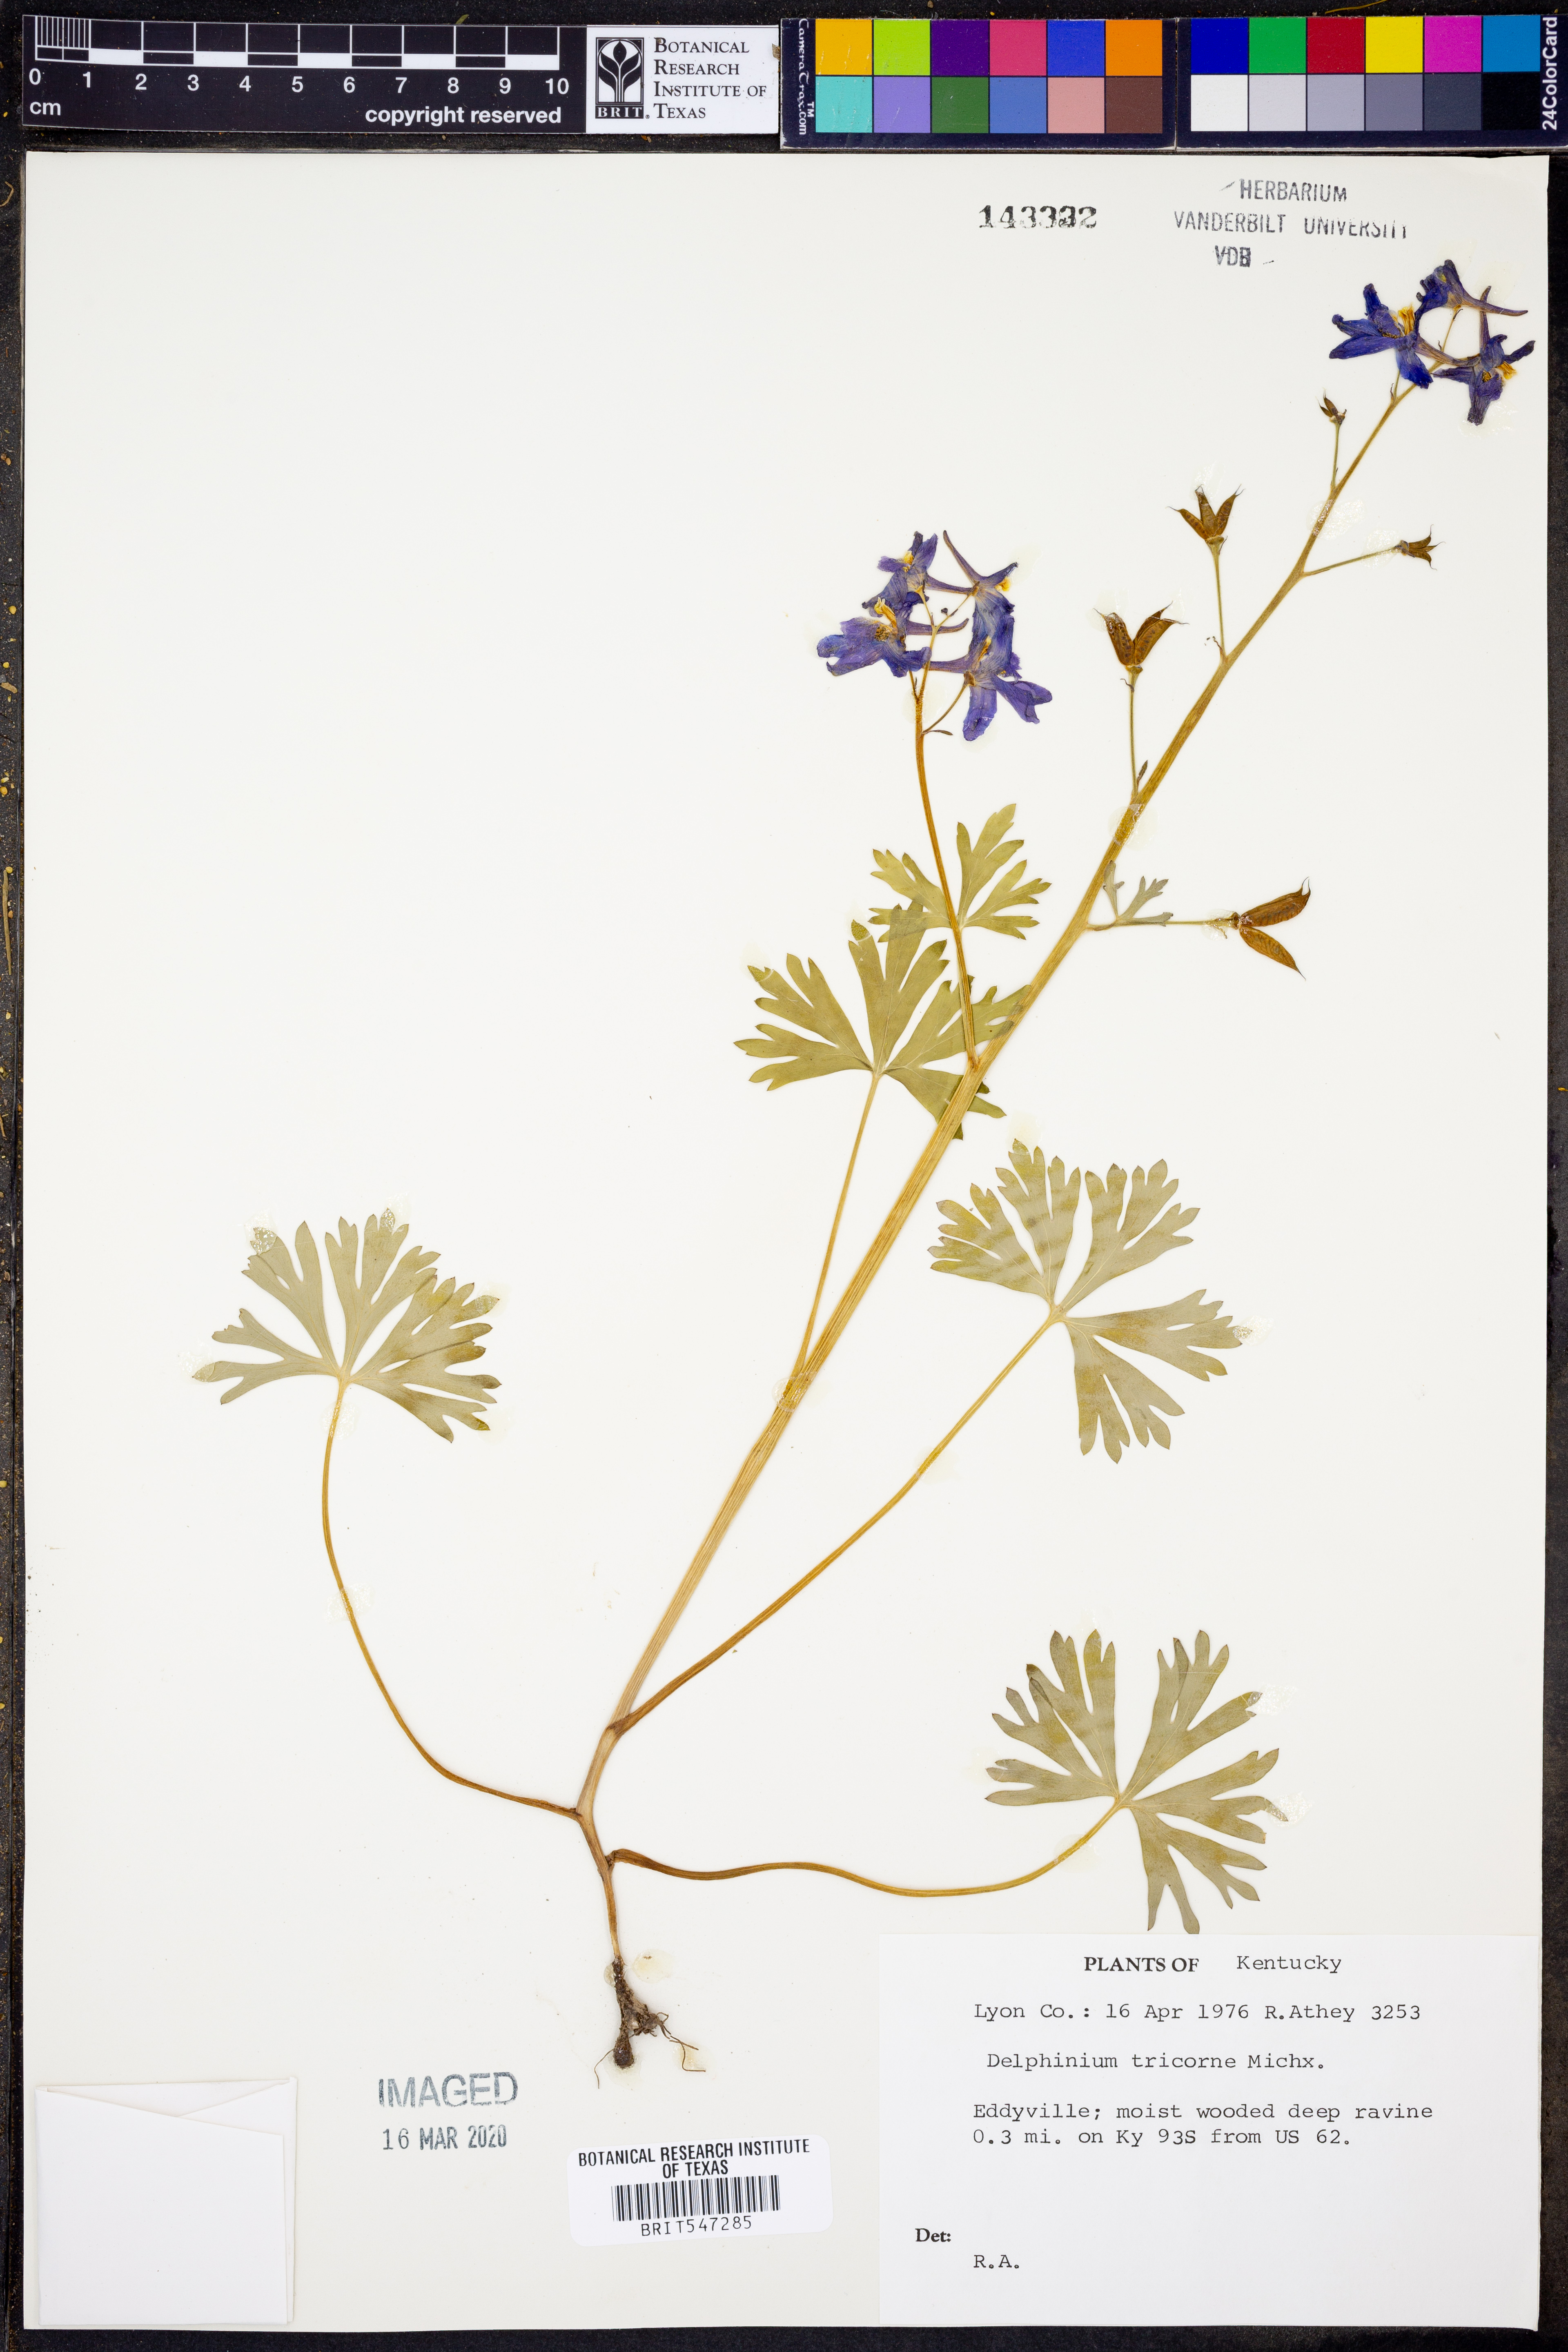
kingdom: Plantae
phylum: Tracheophyta
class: Magnoliopsida
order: Ranunculales
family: Ranunculaceae
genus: Delphinium
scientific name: Delphinium tricorne
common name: Dwarf larkspur
